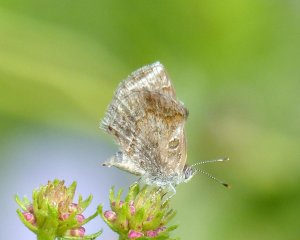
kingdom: Animalia
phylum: Arthropoda
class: Insecta
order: Lepidoptera
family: Lycaenidae
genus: Strymon
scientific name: Strymon bazochii
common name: Lantana Scrub-Hairstreak
